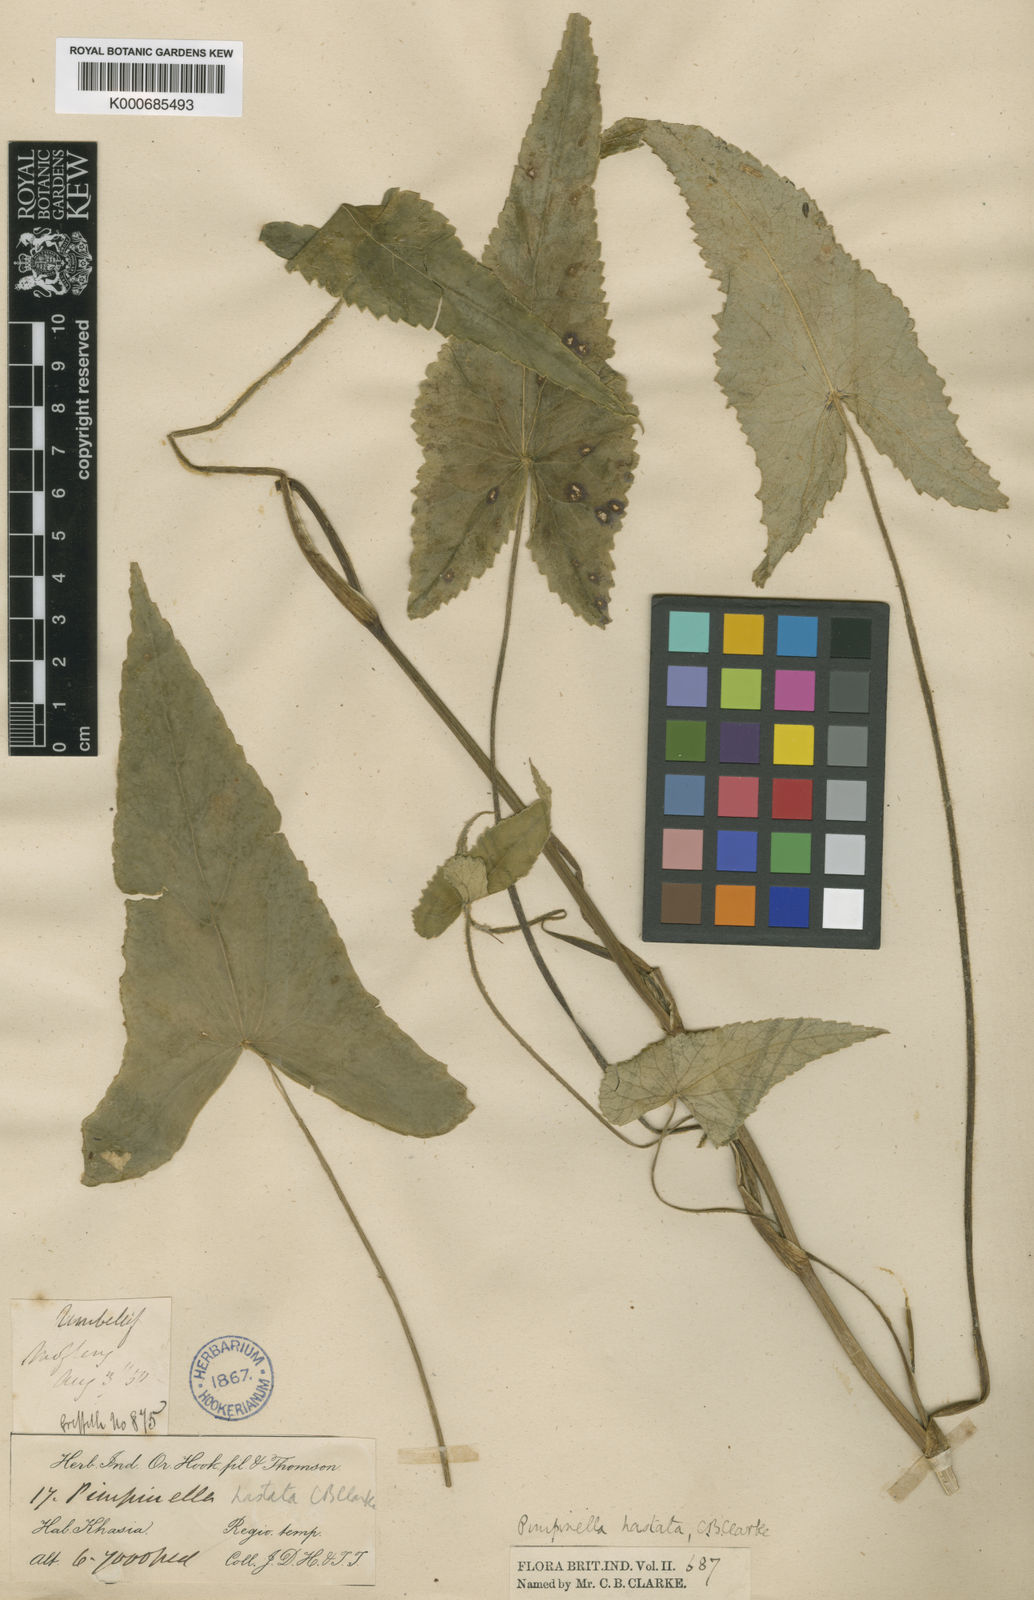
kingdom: Plantae
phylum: Tracheophyta
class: Magnoliopsida
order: Apiales
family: Apiaceae
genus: Pimpinella
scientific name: Pimpinella hastata
